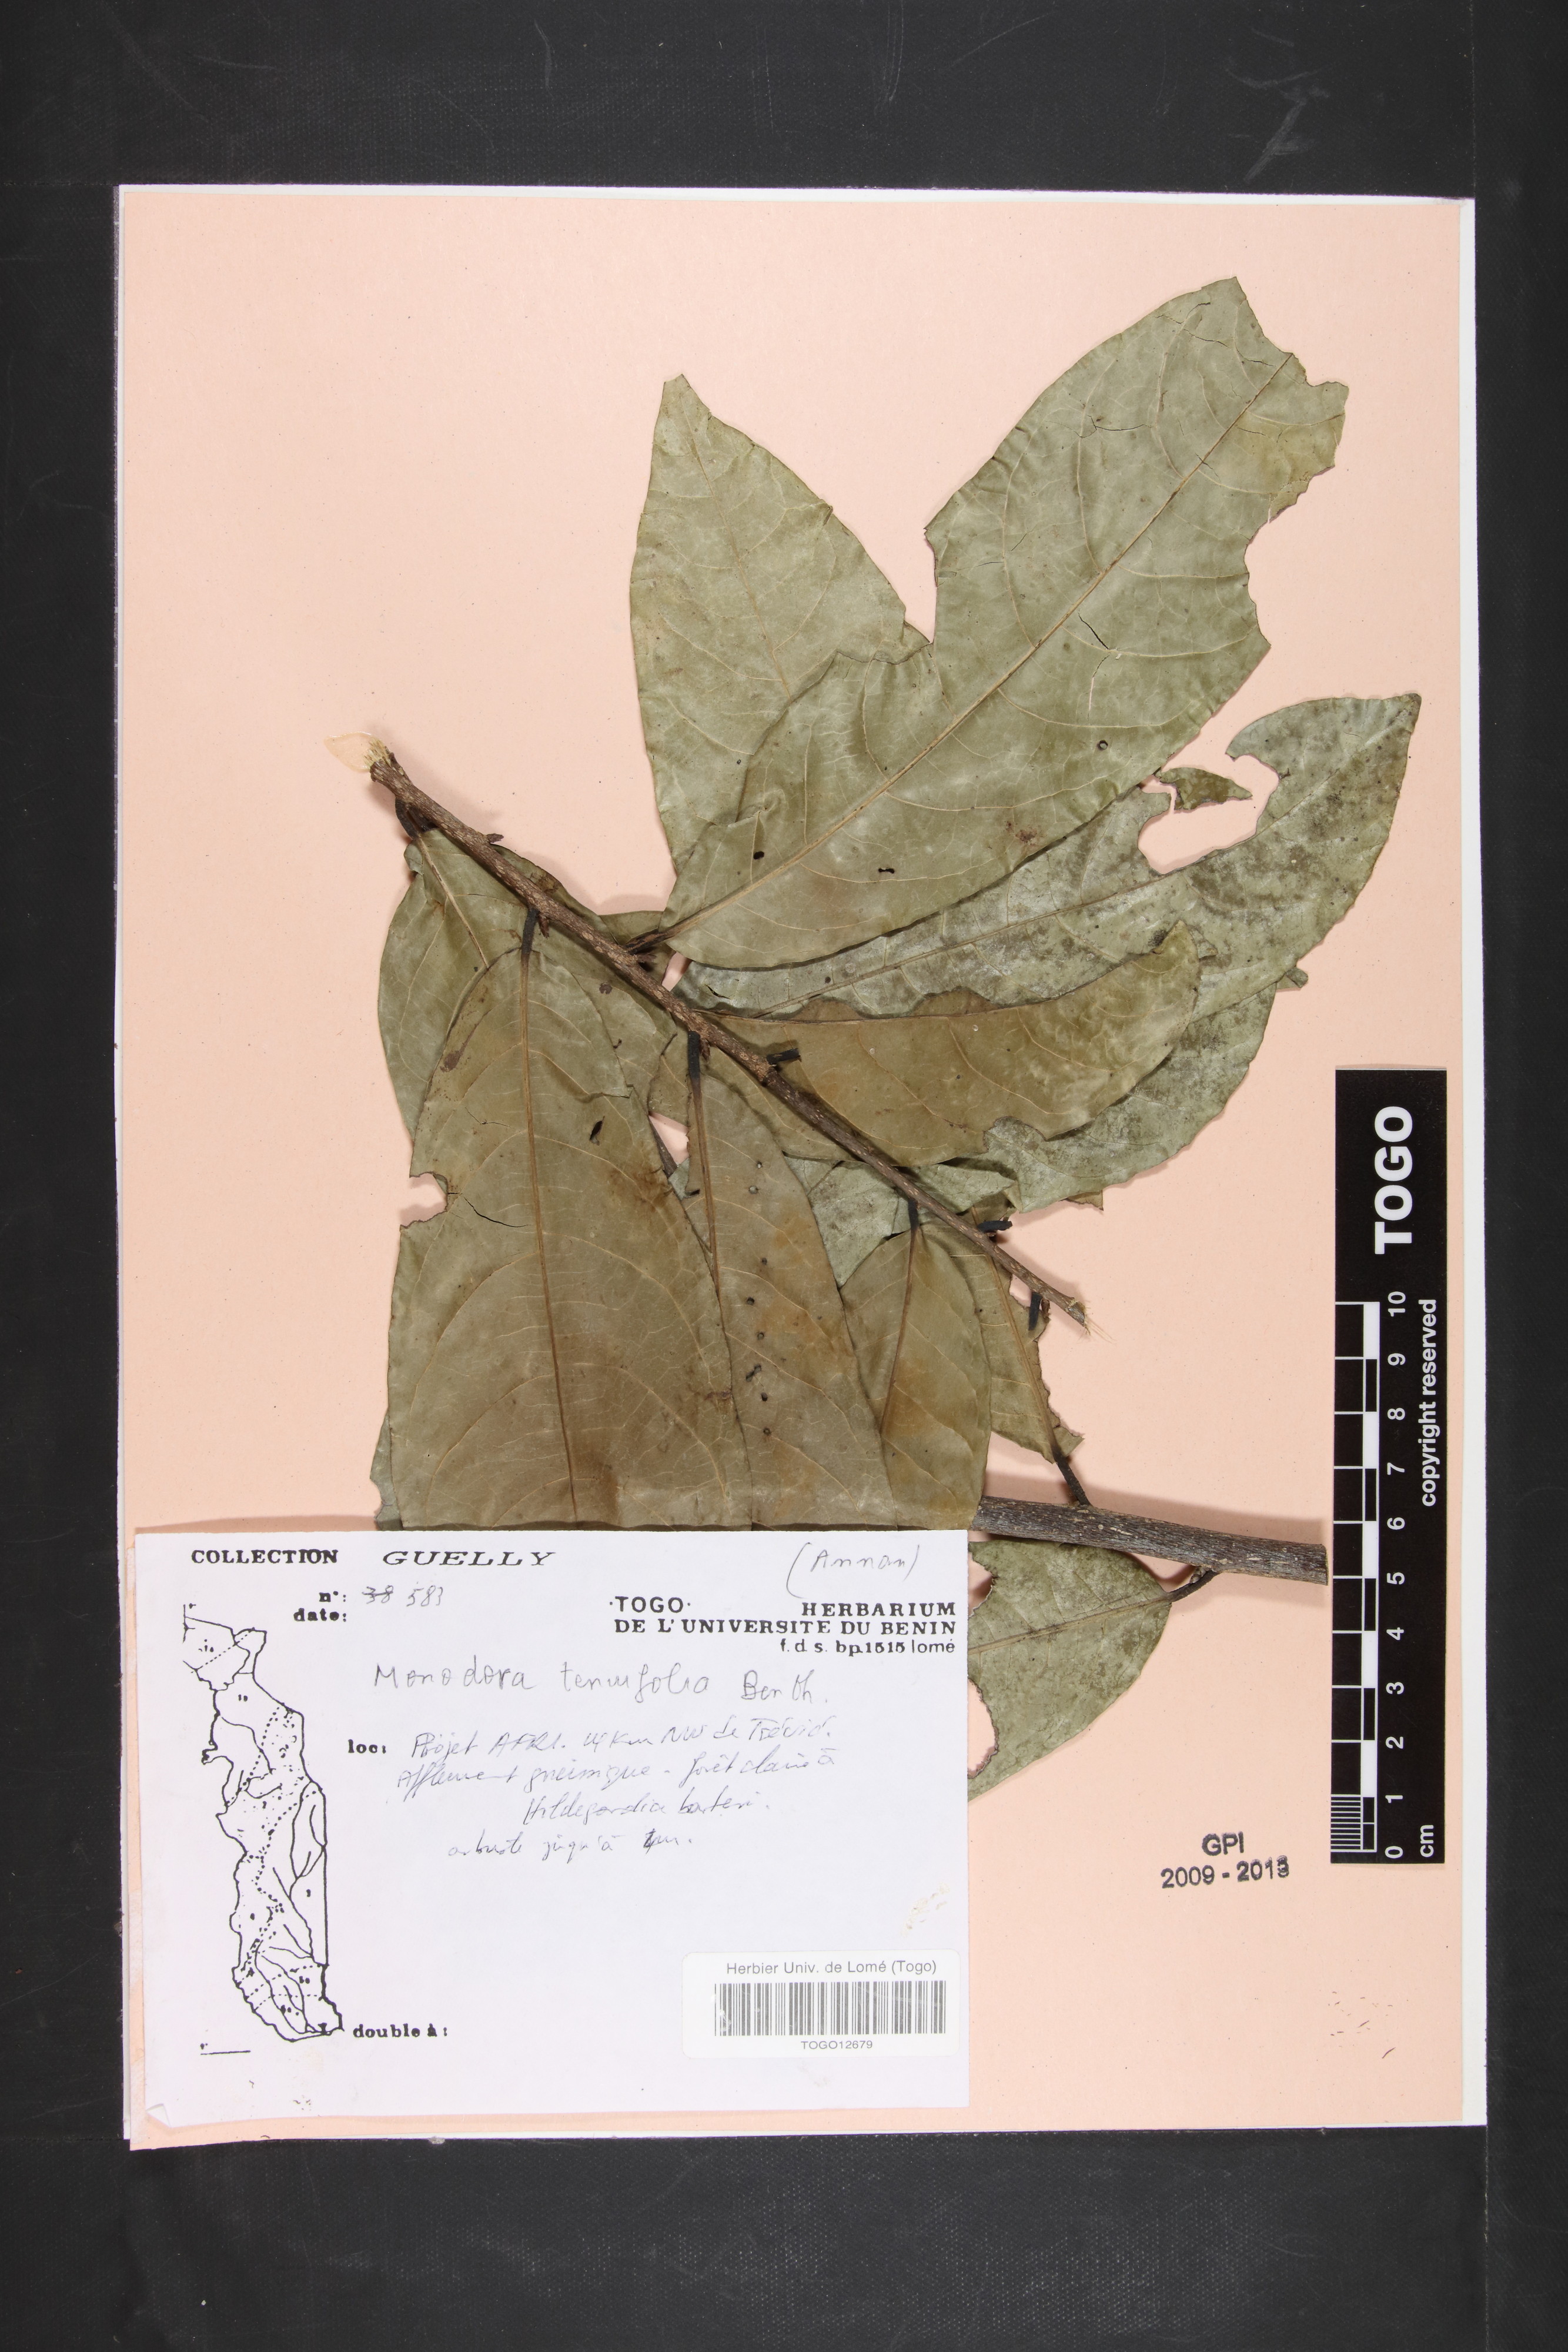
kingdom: Plantae
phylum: Tracheophyta
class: Magnoliopsida
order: Magnoliales
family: Annonaceae
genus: Monodora
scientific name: Monodora tenuifolia
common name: Orchidtree
